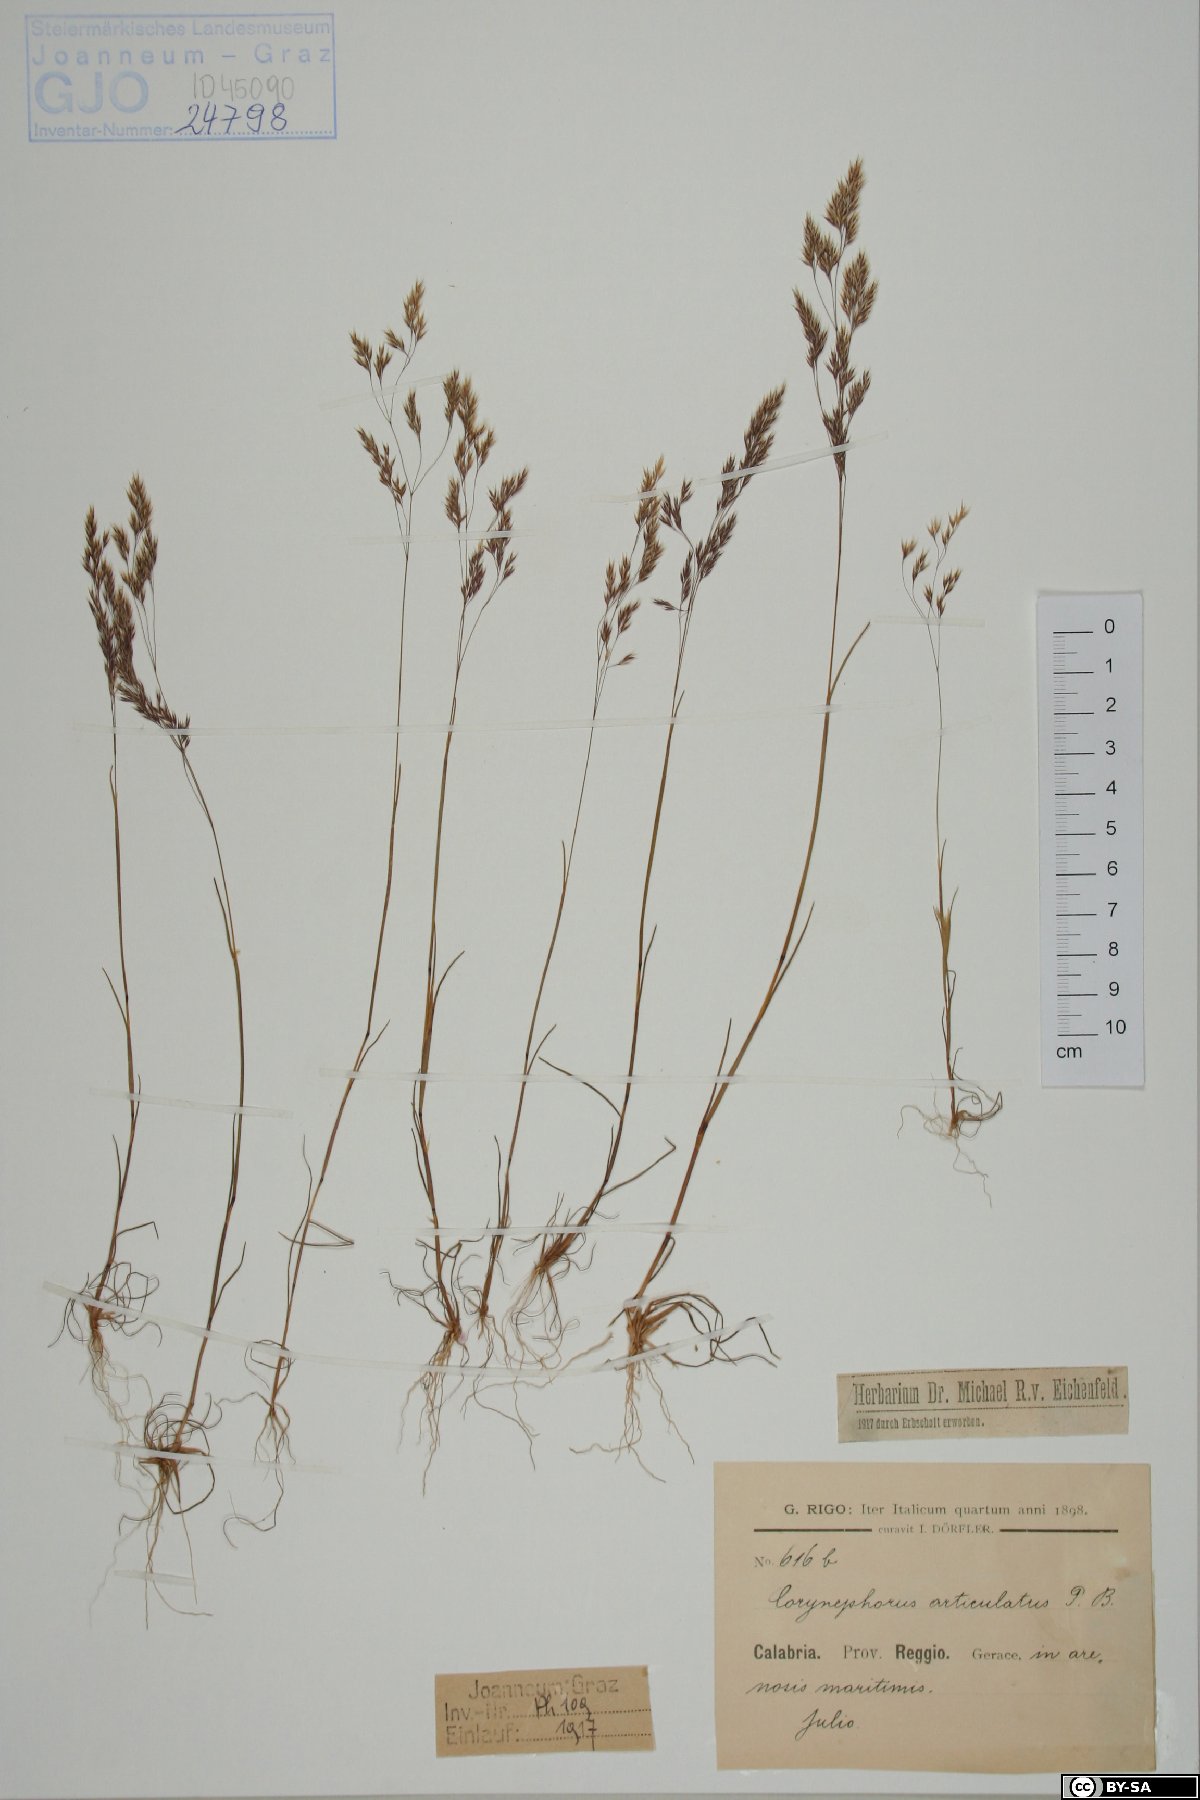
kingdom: Plantae
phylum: Tracheophyta
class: Liliopsida
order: Poales
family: Poaceae
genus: Corynephorus
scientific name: Corynephorus articulatus
